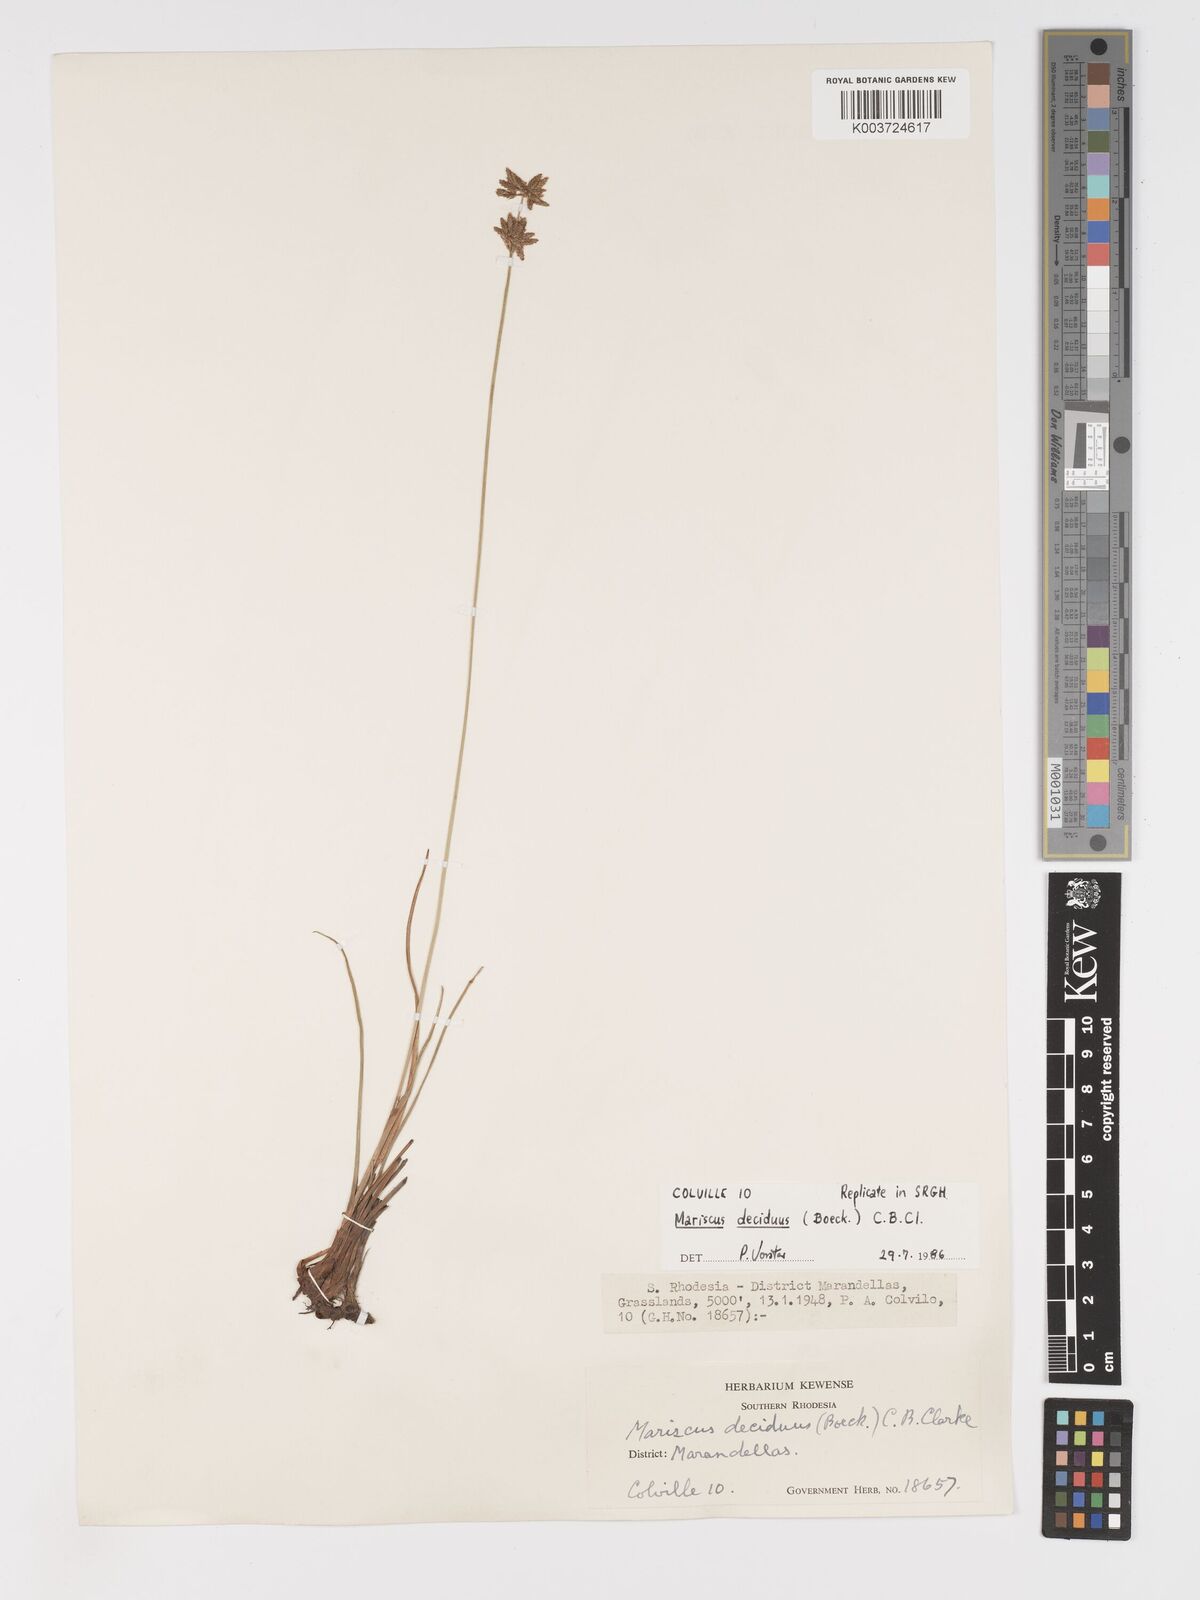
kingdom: Plantae
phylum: Tracheophyta
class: Liliopsida
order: Poales
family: Cyperaceae
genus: Cyperus
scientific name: Cyperus deciduus
